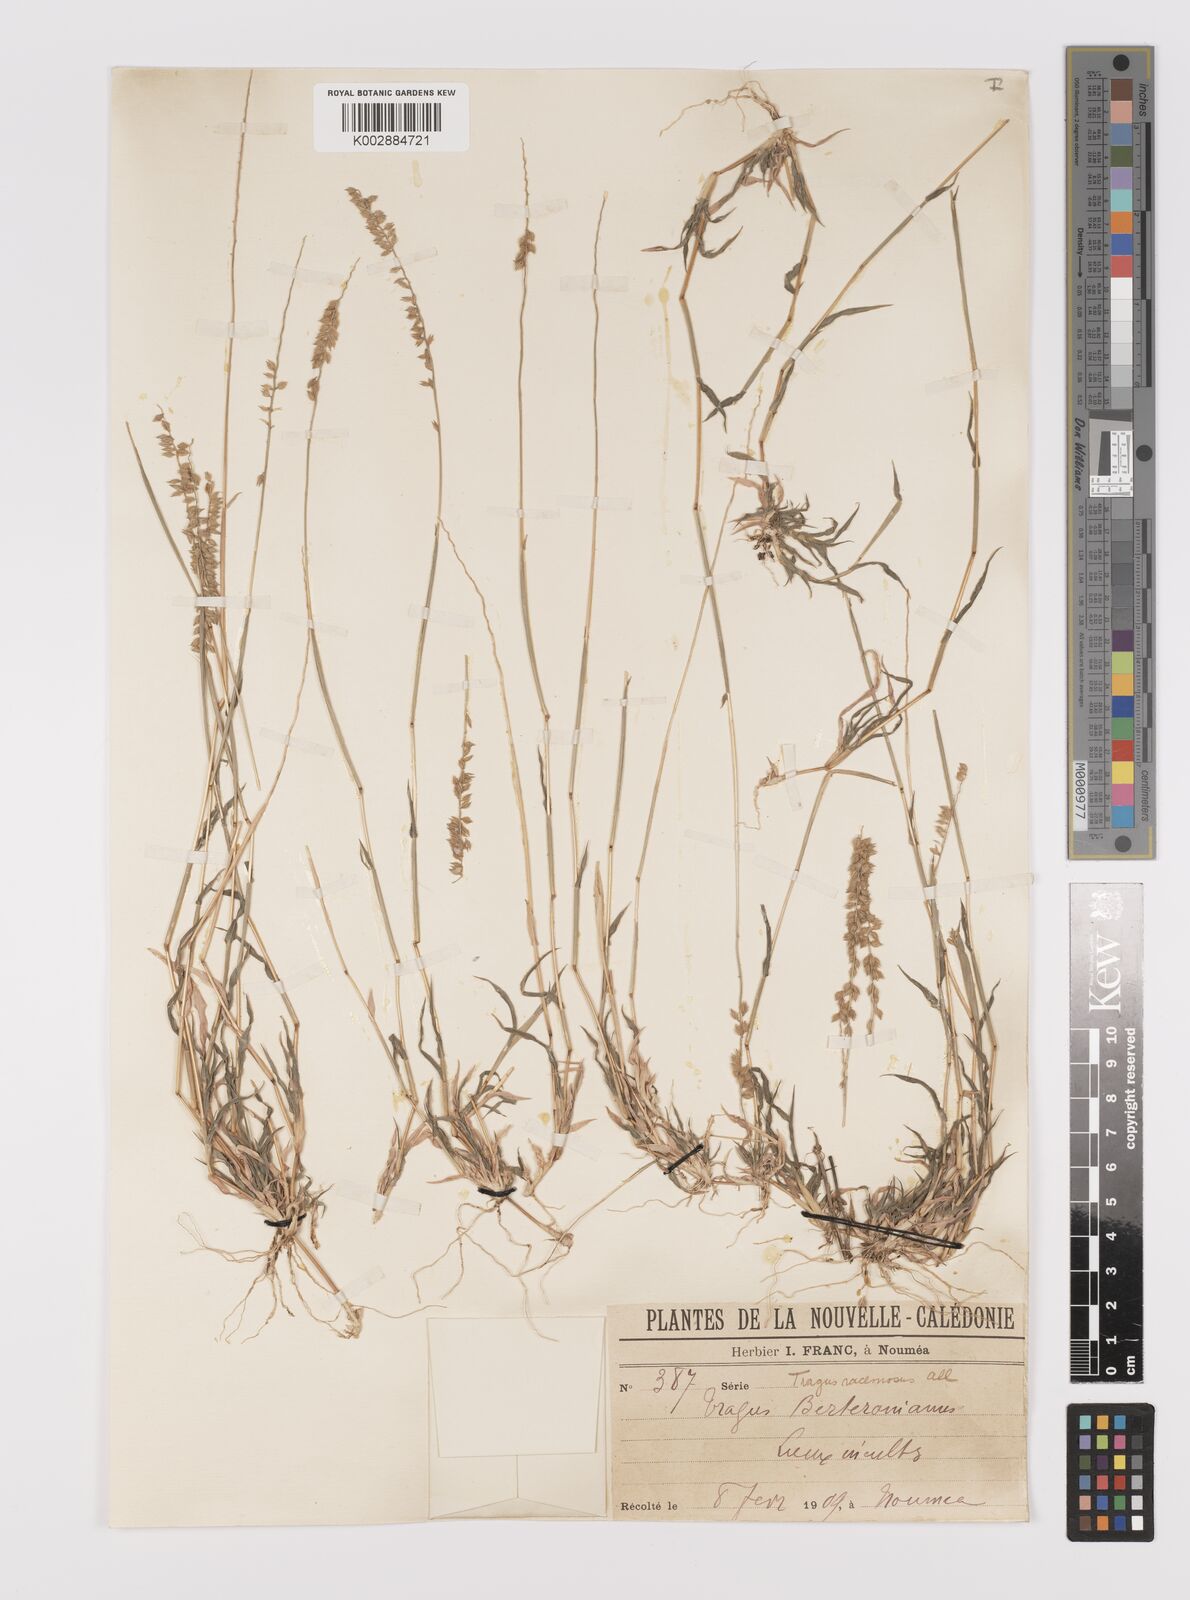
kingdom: Plantae
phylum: Tracheophyta
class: Liliopsida
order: Poales
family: Poaceae
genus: Tragus
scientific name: Tragus australianus
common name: Australian bur-grass
